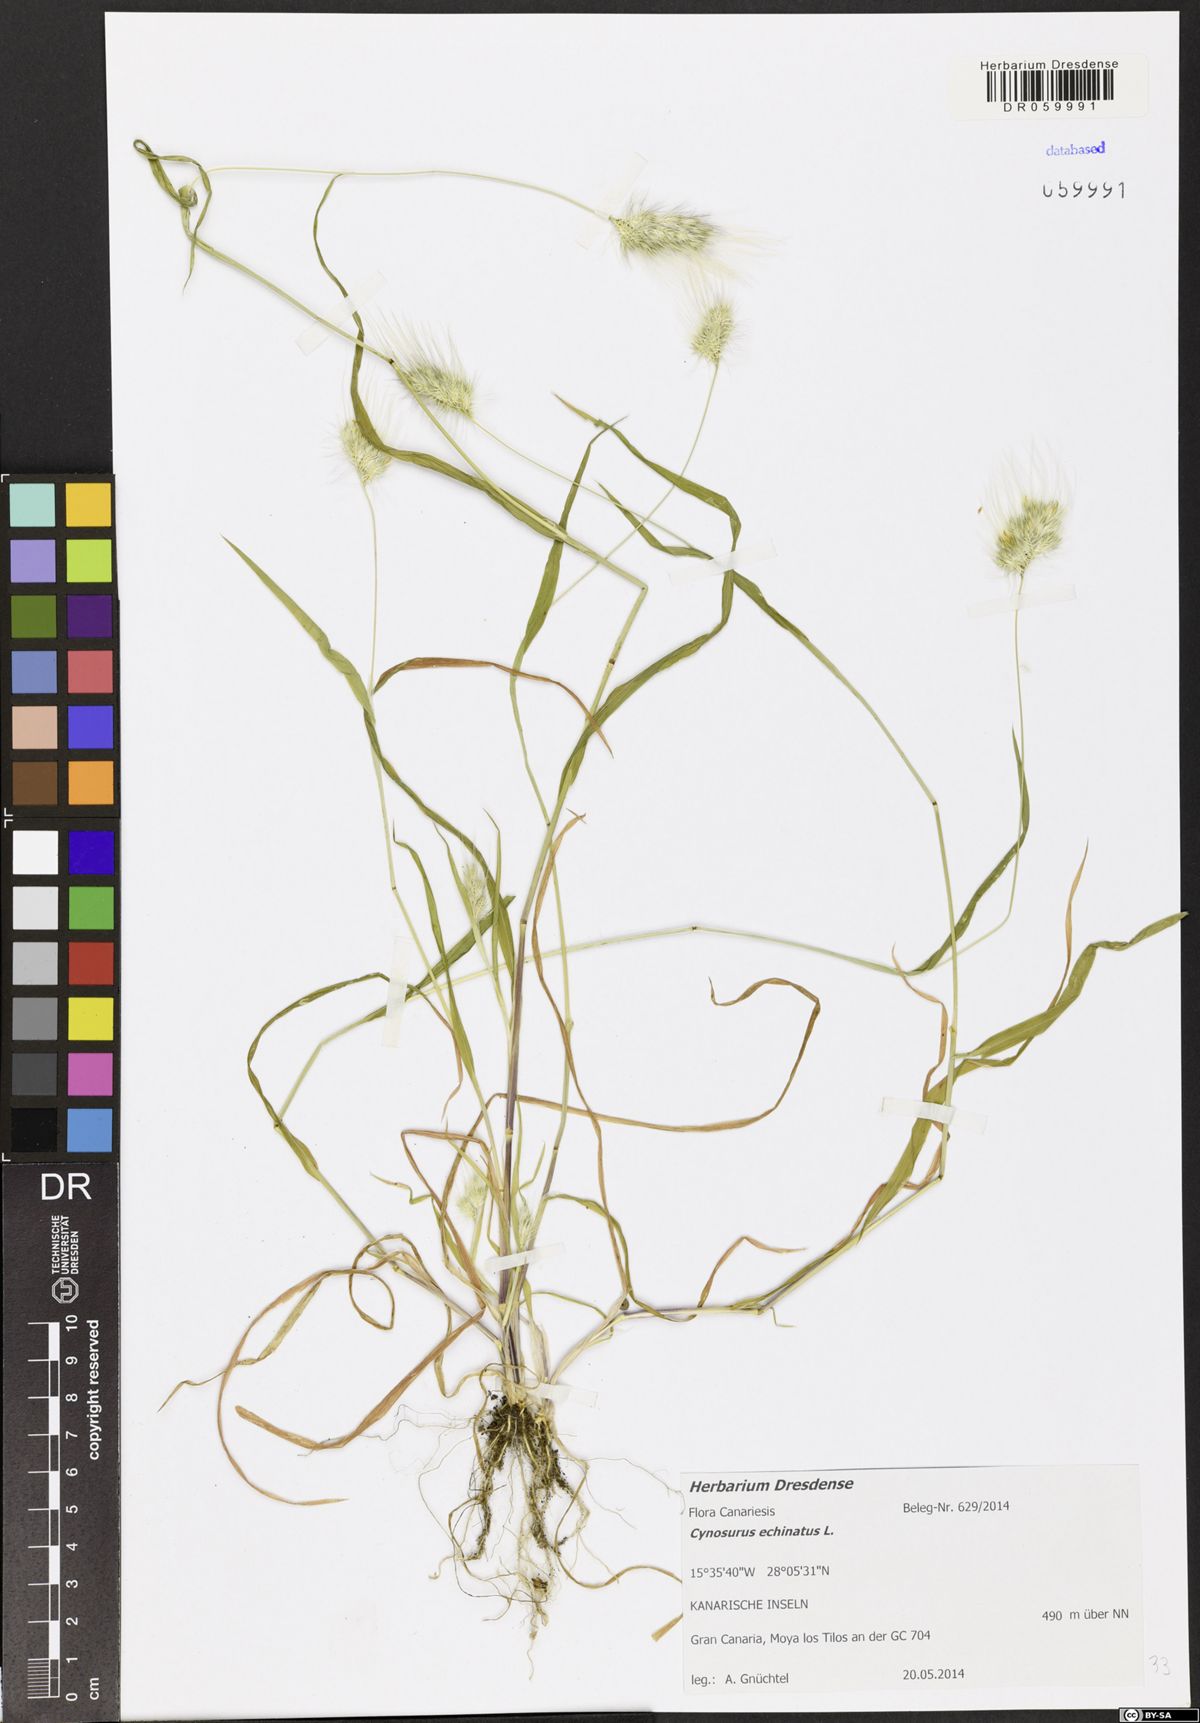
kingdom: Plantae
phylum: Tracheophyta
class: Liliopsida
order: Poales
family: Poaceae
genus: Cynosurus
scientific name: Cynosurus echinatus
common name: Rough dog's-tail
